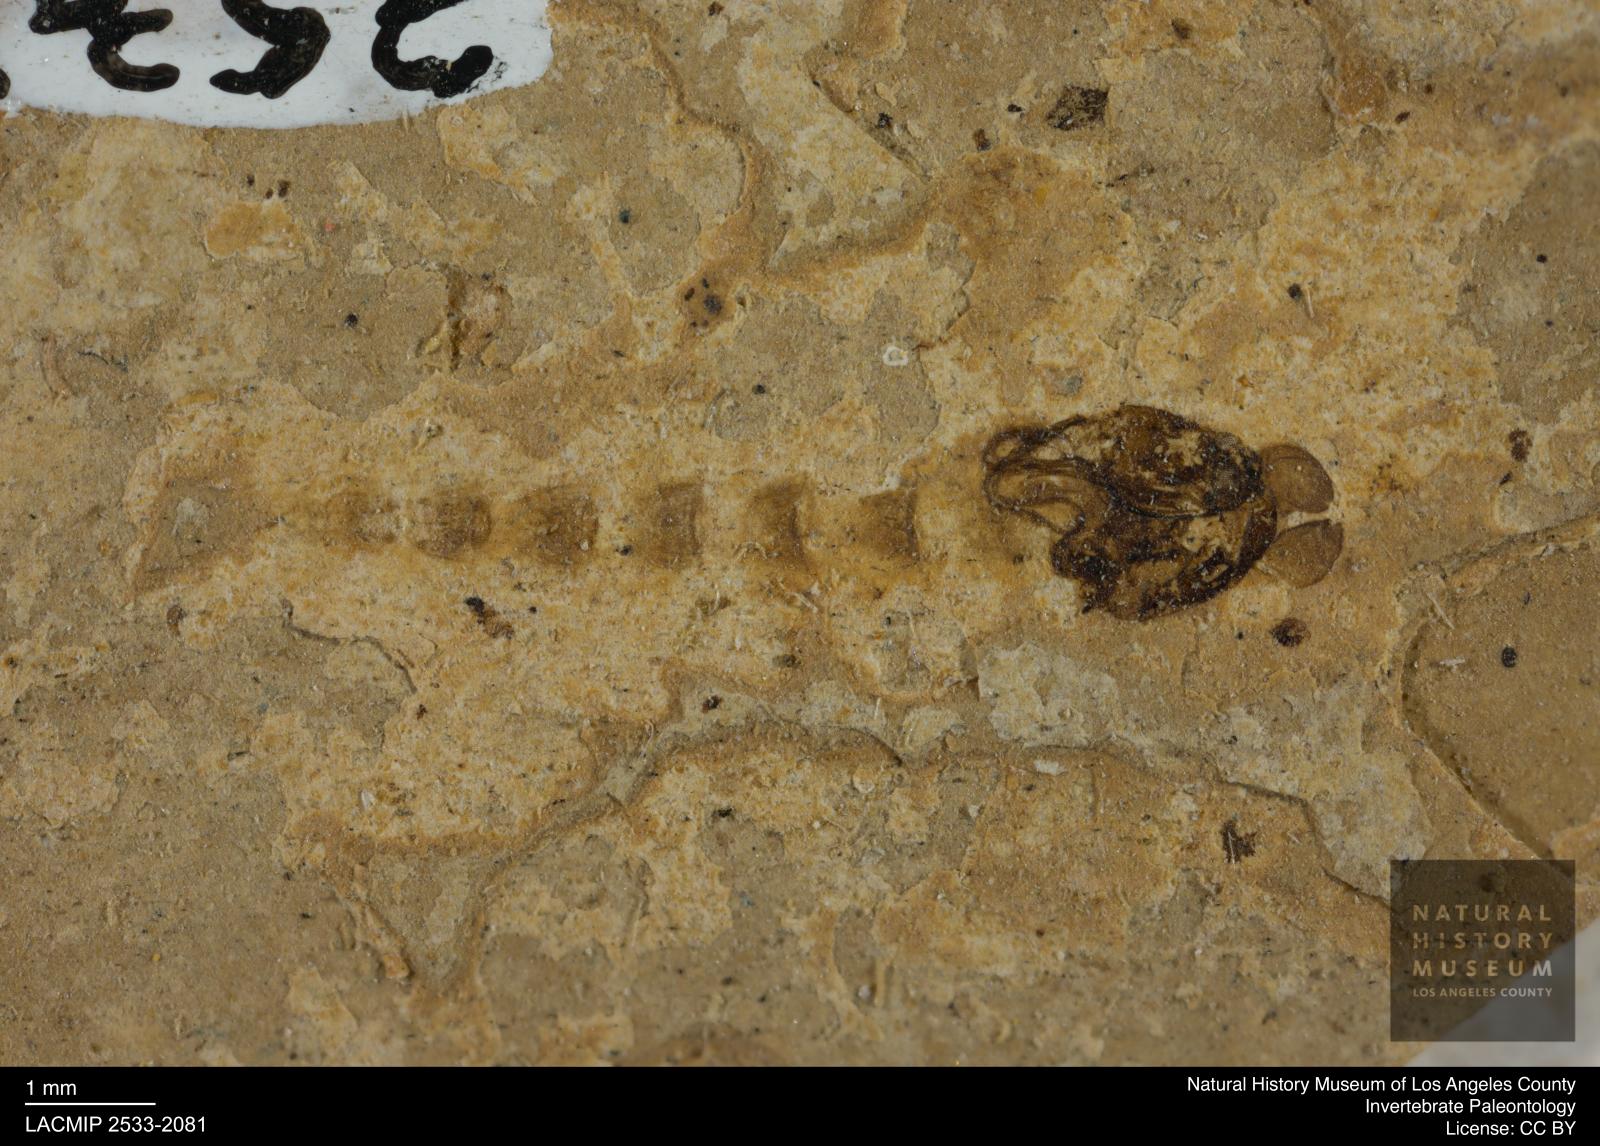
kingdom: Animalia
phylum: Arthropoda
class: Insecta
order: Diptera
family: Chironomidae
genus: Pelopiina
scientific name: Pelopiina
